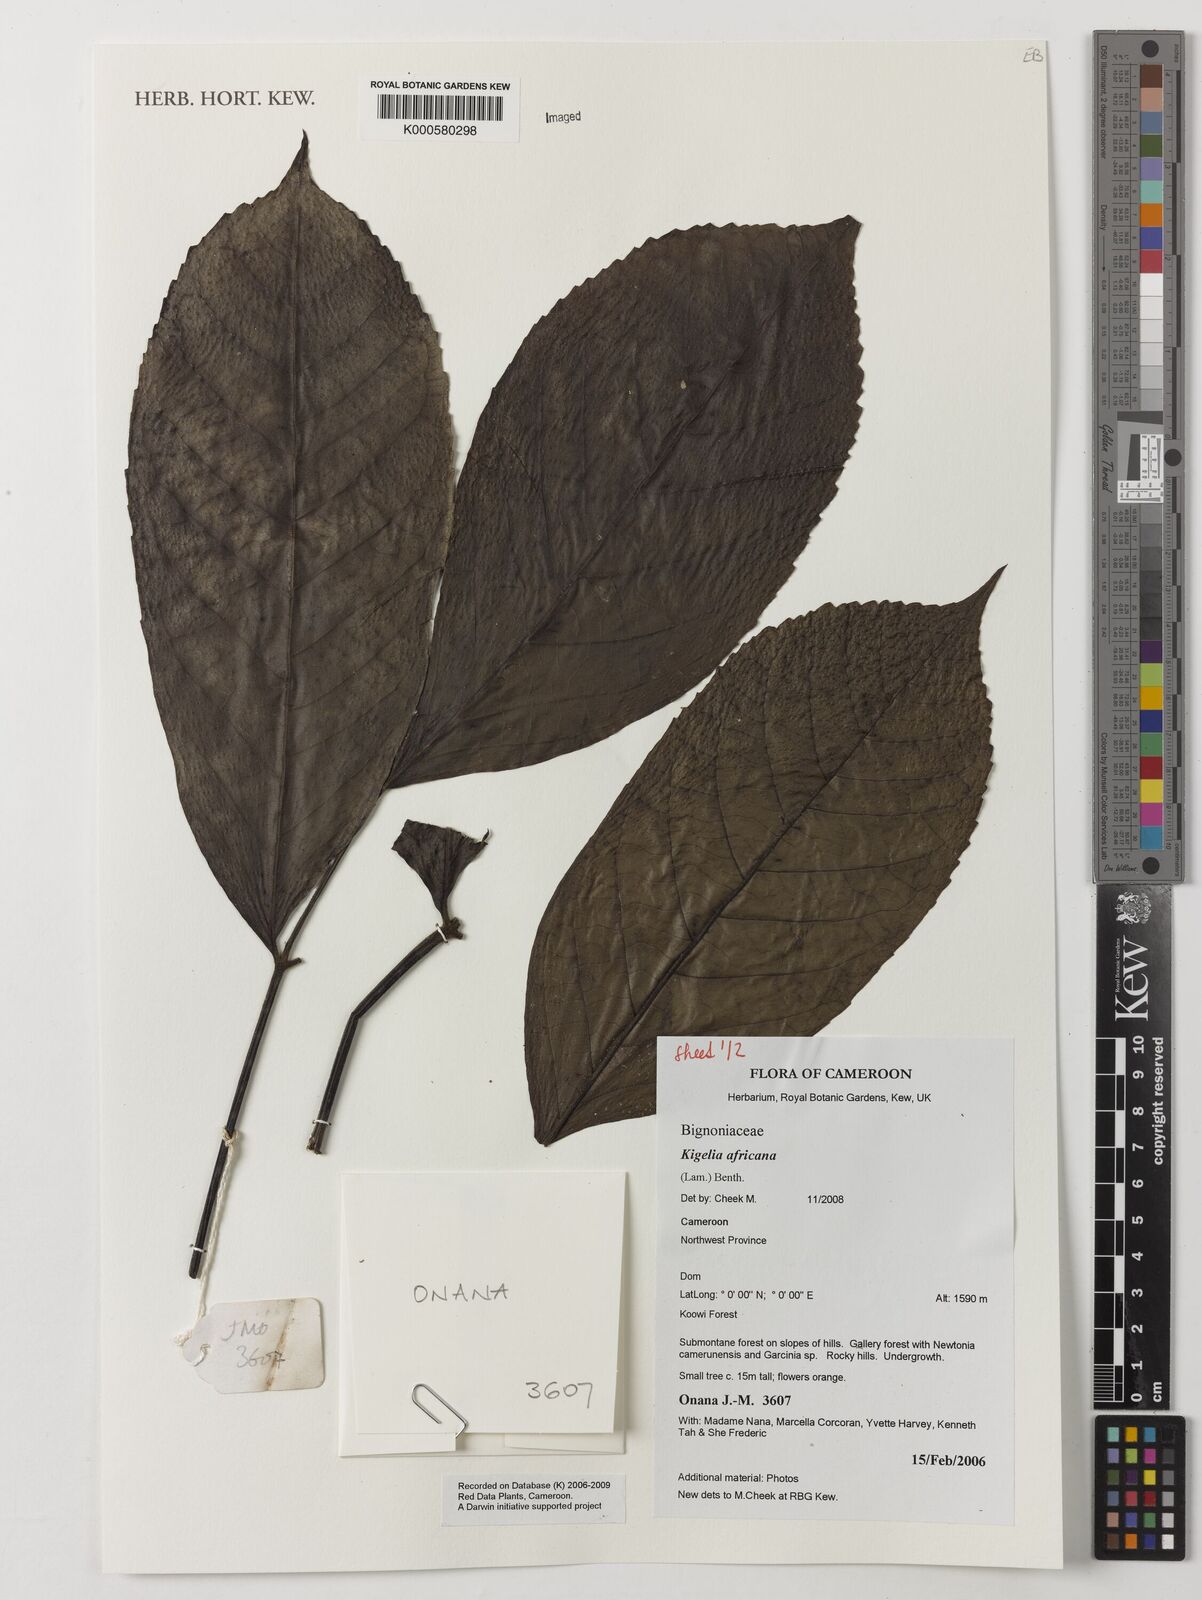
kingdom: Plantae
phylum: Tracheophyta
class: Magnoliopsida
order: Lamiales
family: Bignoniaceae
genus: Kigelia
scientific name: Kigelia africana
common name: Sausage tree
